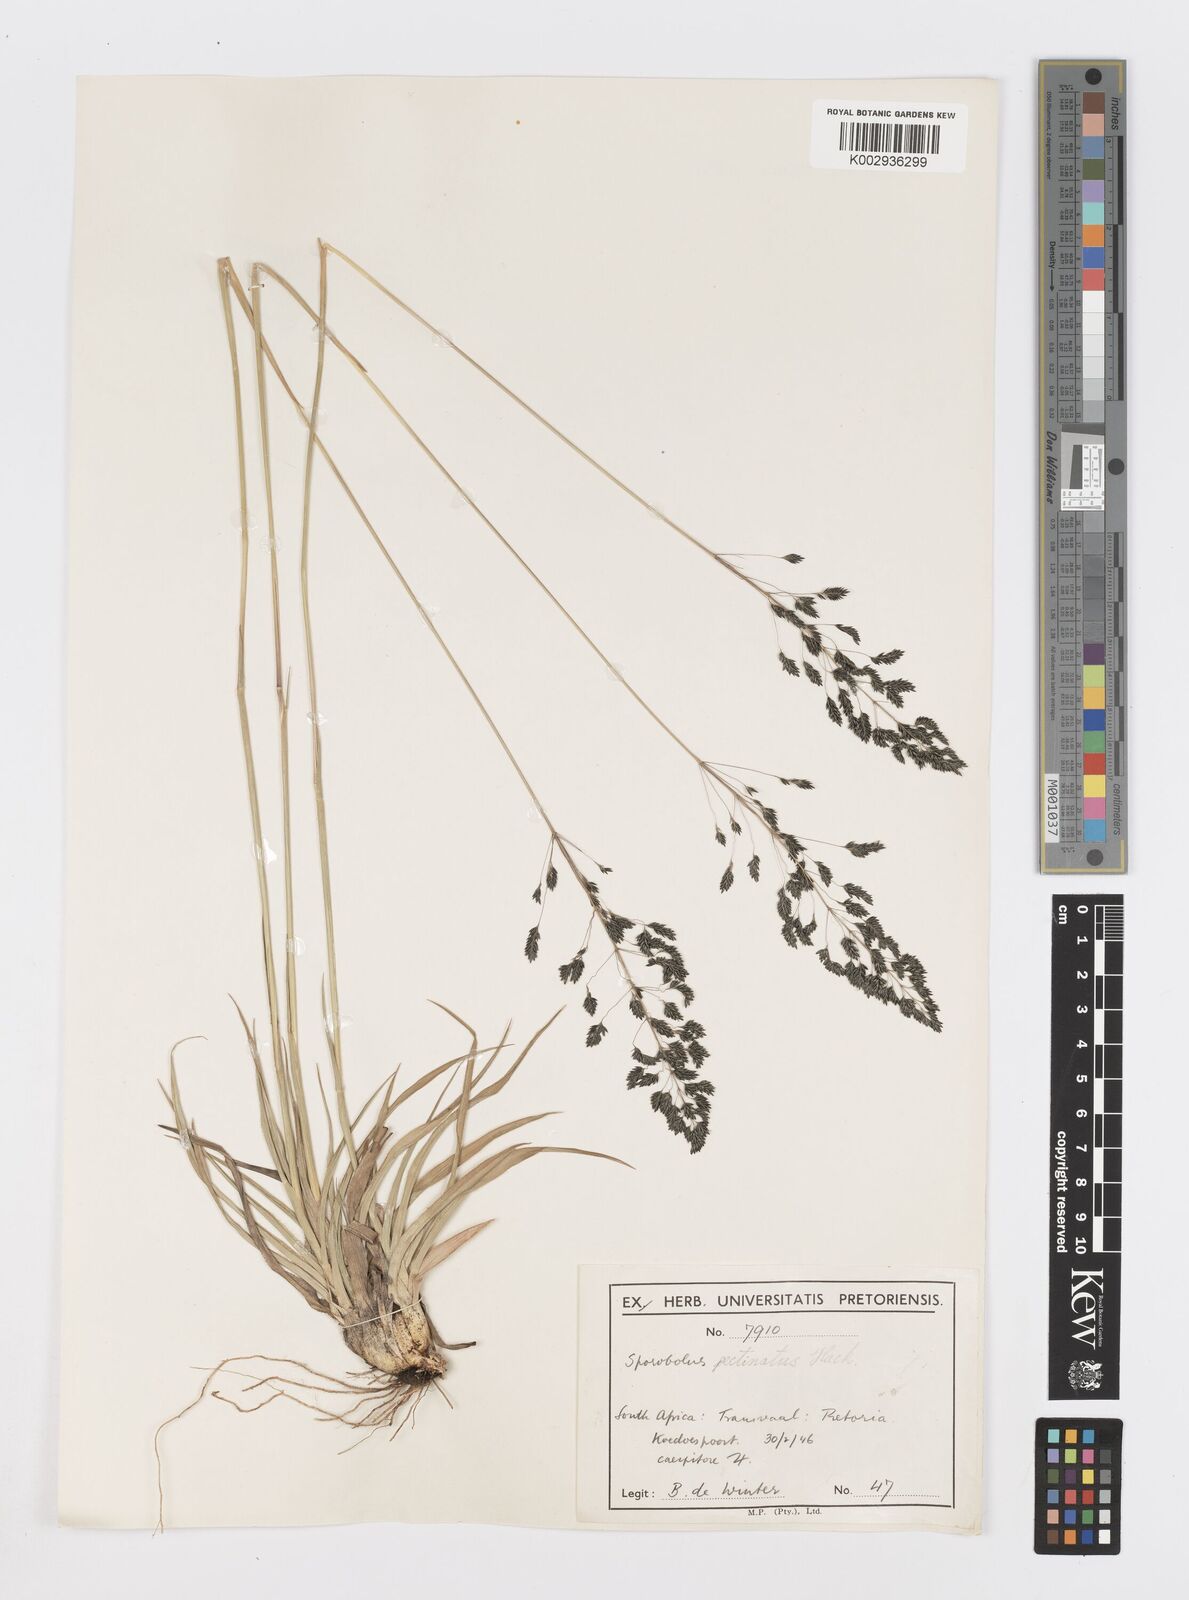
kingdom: Plantae
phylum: Tracheophyta
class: Liliopsida
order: Poales
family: Poaceae
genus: Sporobolus
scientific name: Sporobolus pectinatus
